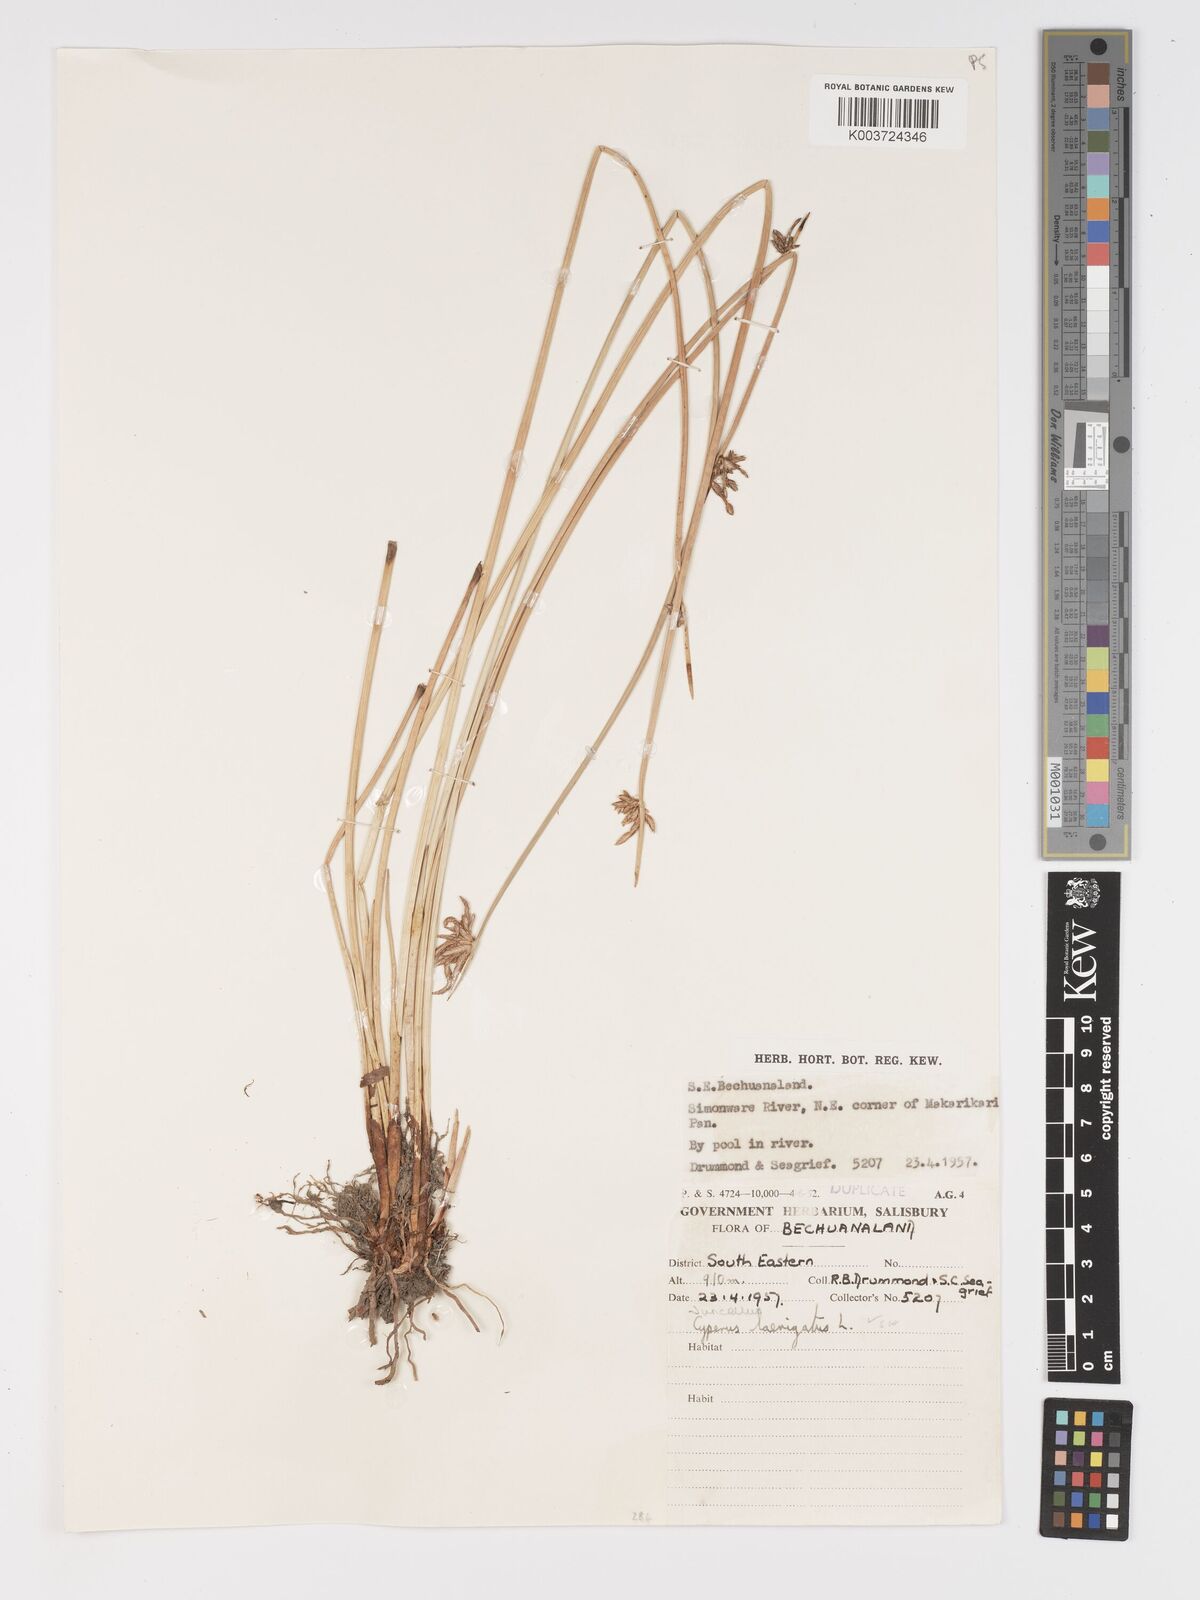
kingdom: Plantae
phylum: Tracheophyta
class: Liliopsida
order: Poales
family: Cyperaceae
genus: Cyperus
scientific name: Cyperus laevigatus
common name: Smooth flat sedge
